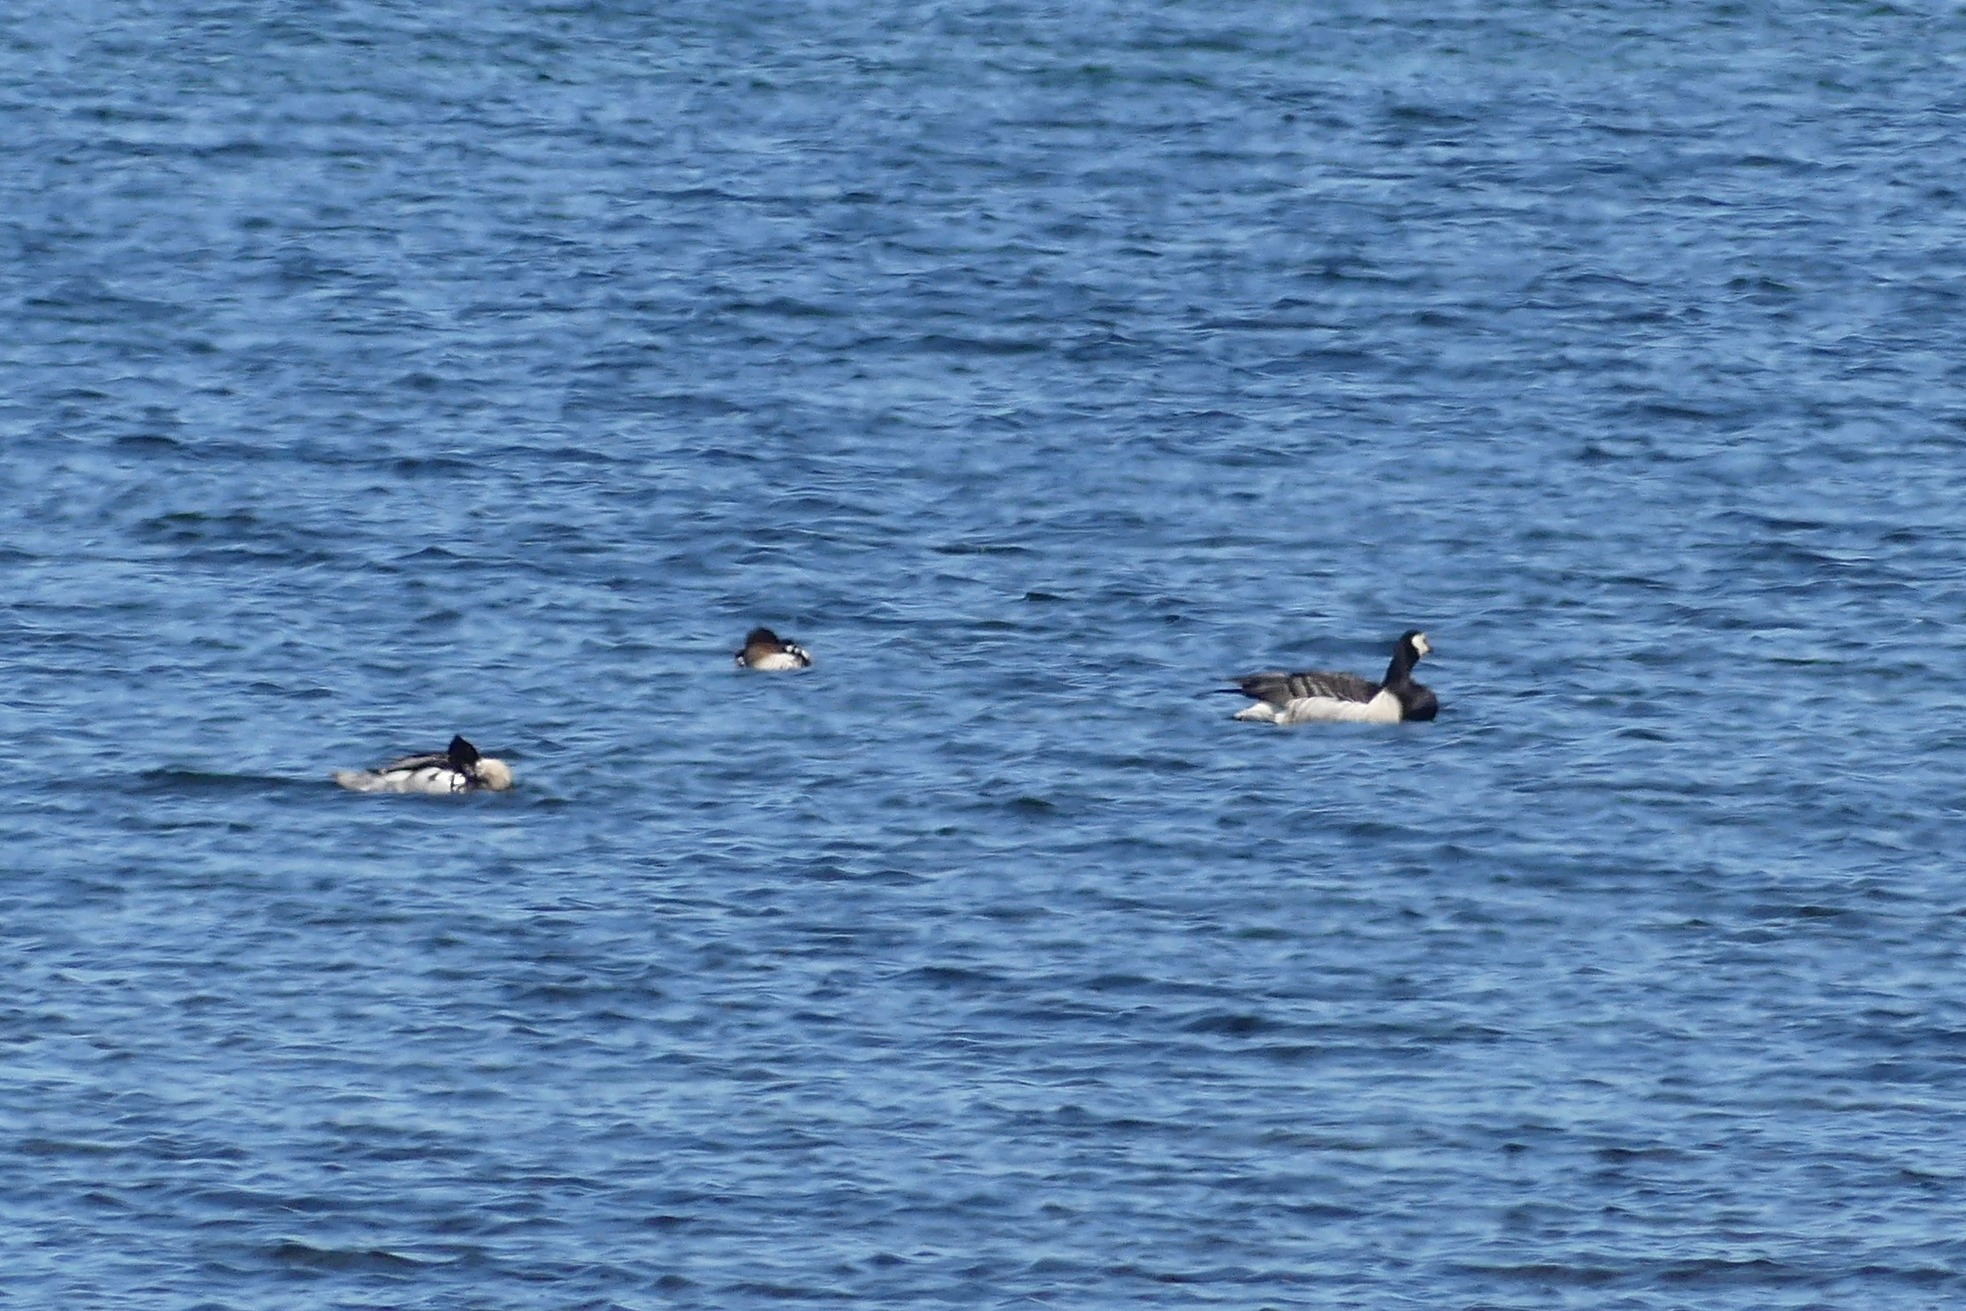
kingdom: Animalia
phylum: Chordata
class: Aves
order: Anseriformes
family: Anatidae
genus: Branta
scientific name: Branta leucopsis
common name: Bramgås
